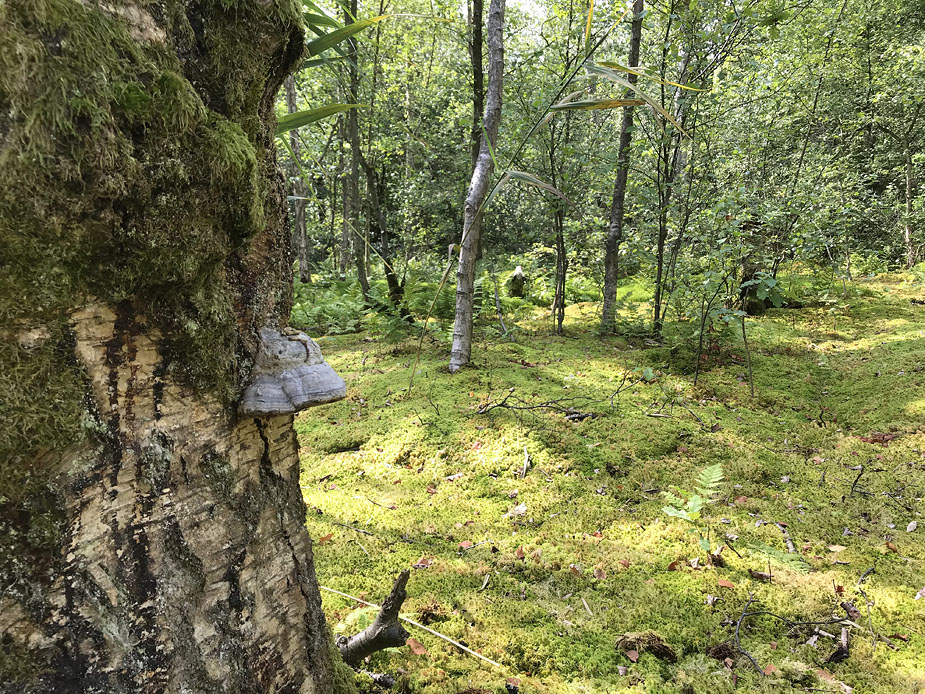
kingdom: Fungi
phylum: Basidiomycota
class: Agaricomycetes
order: Polyporales
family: Polyporaceae
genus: Fomes
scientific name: Fomes fomentarius
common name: tøndersvamp
